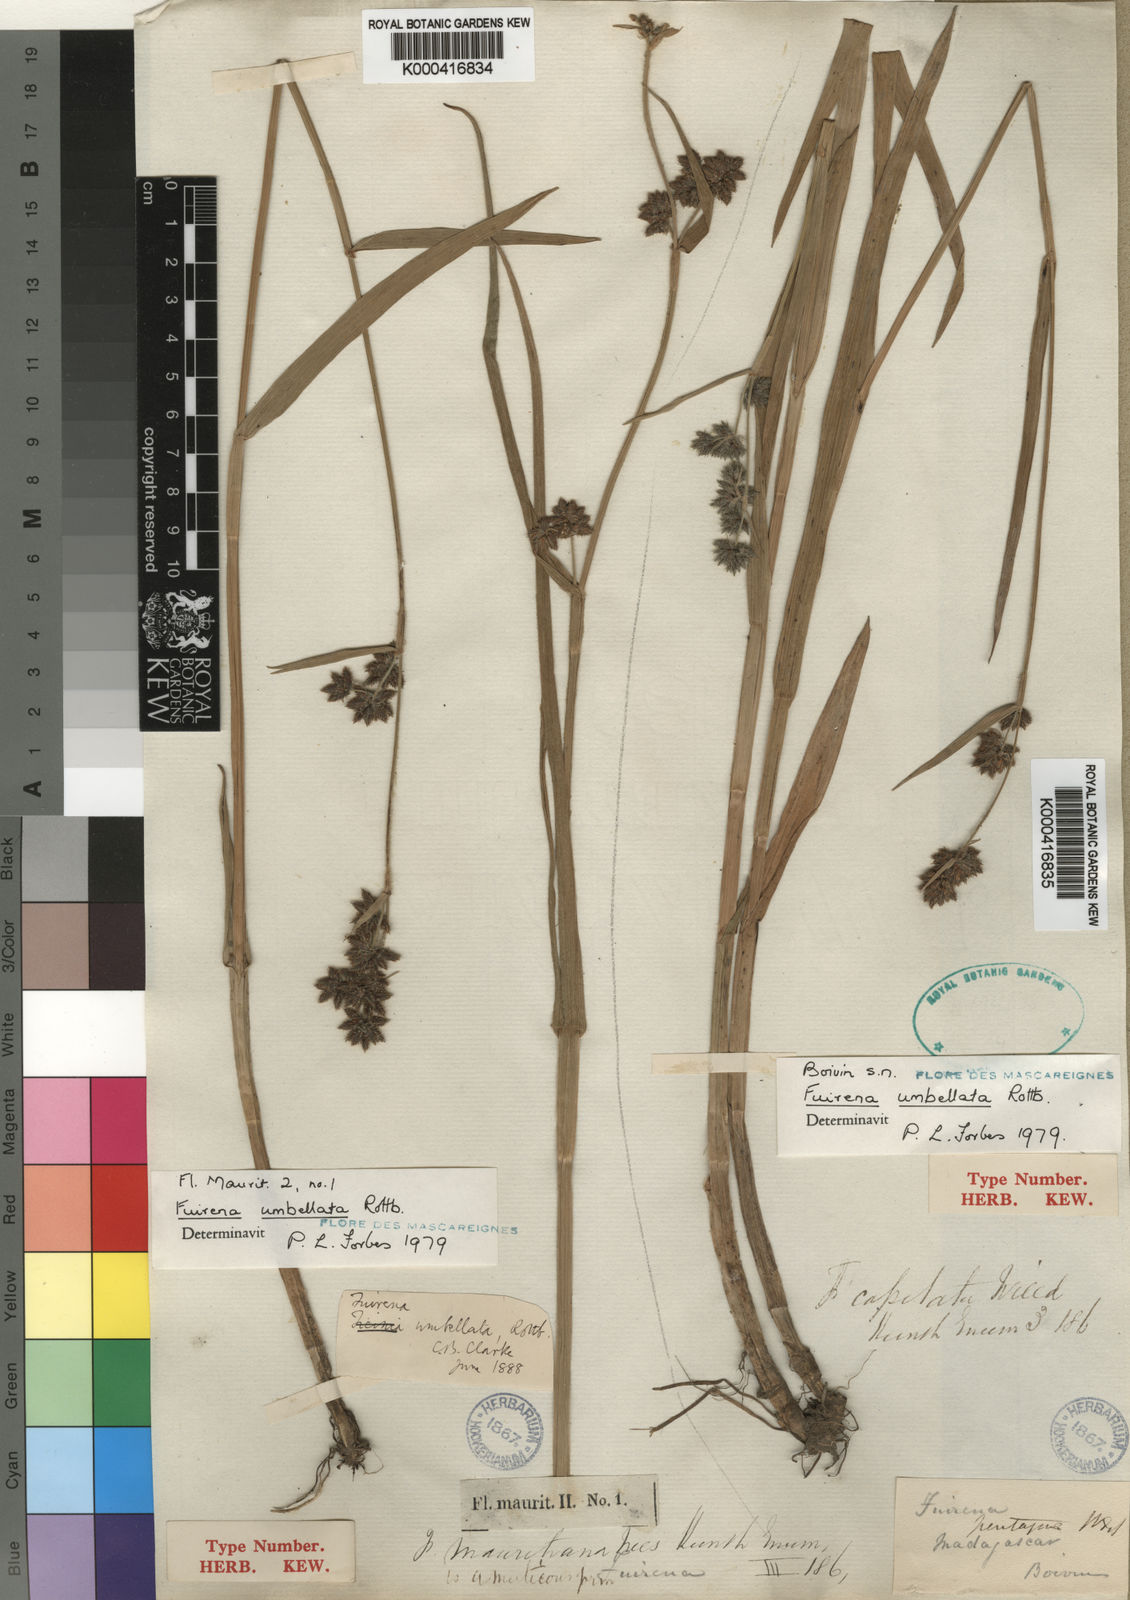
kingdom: Plantae
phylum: Tracheophyta
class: Liliopsida
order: Poales
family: Cyperaceae
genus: Fuirena
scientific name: Fuirena umbellata
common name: Yefen
